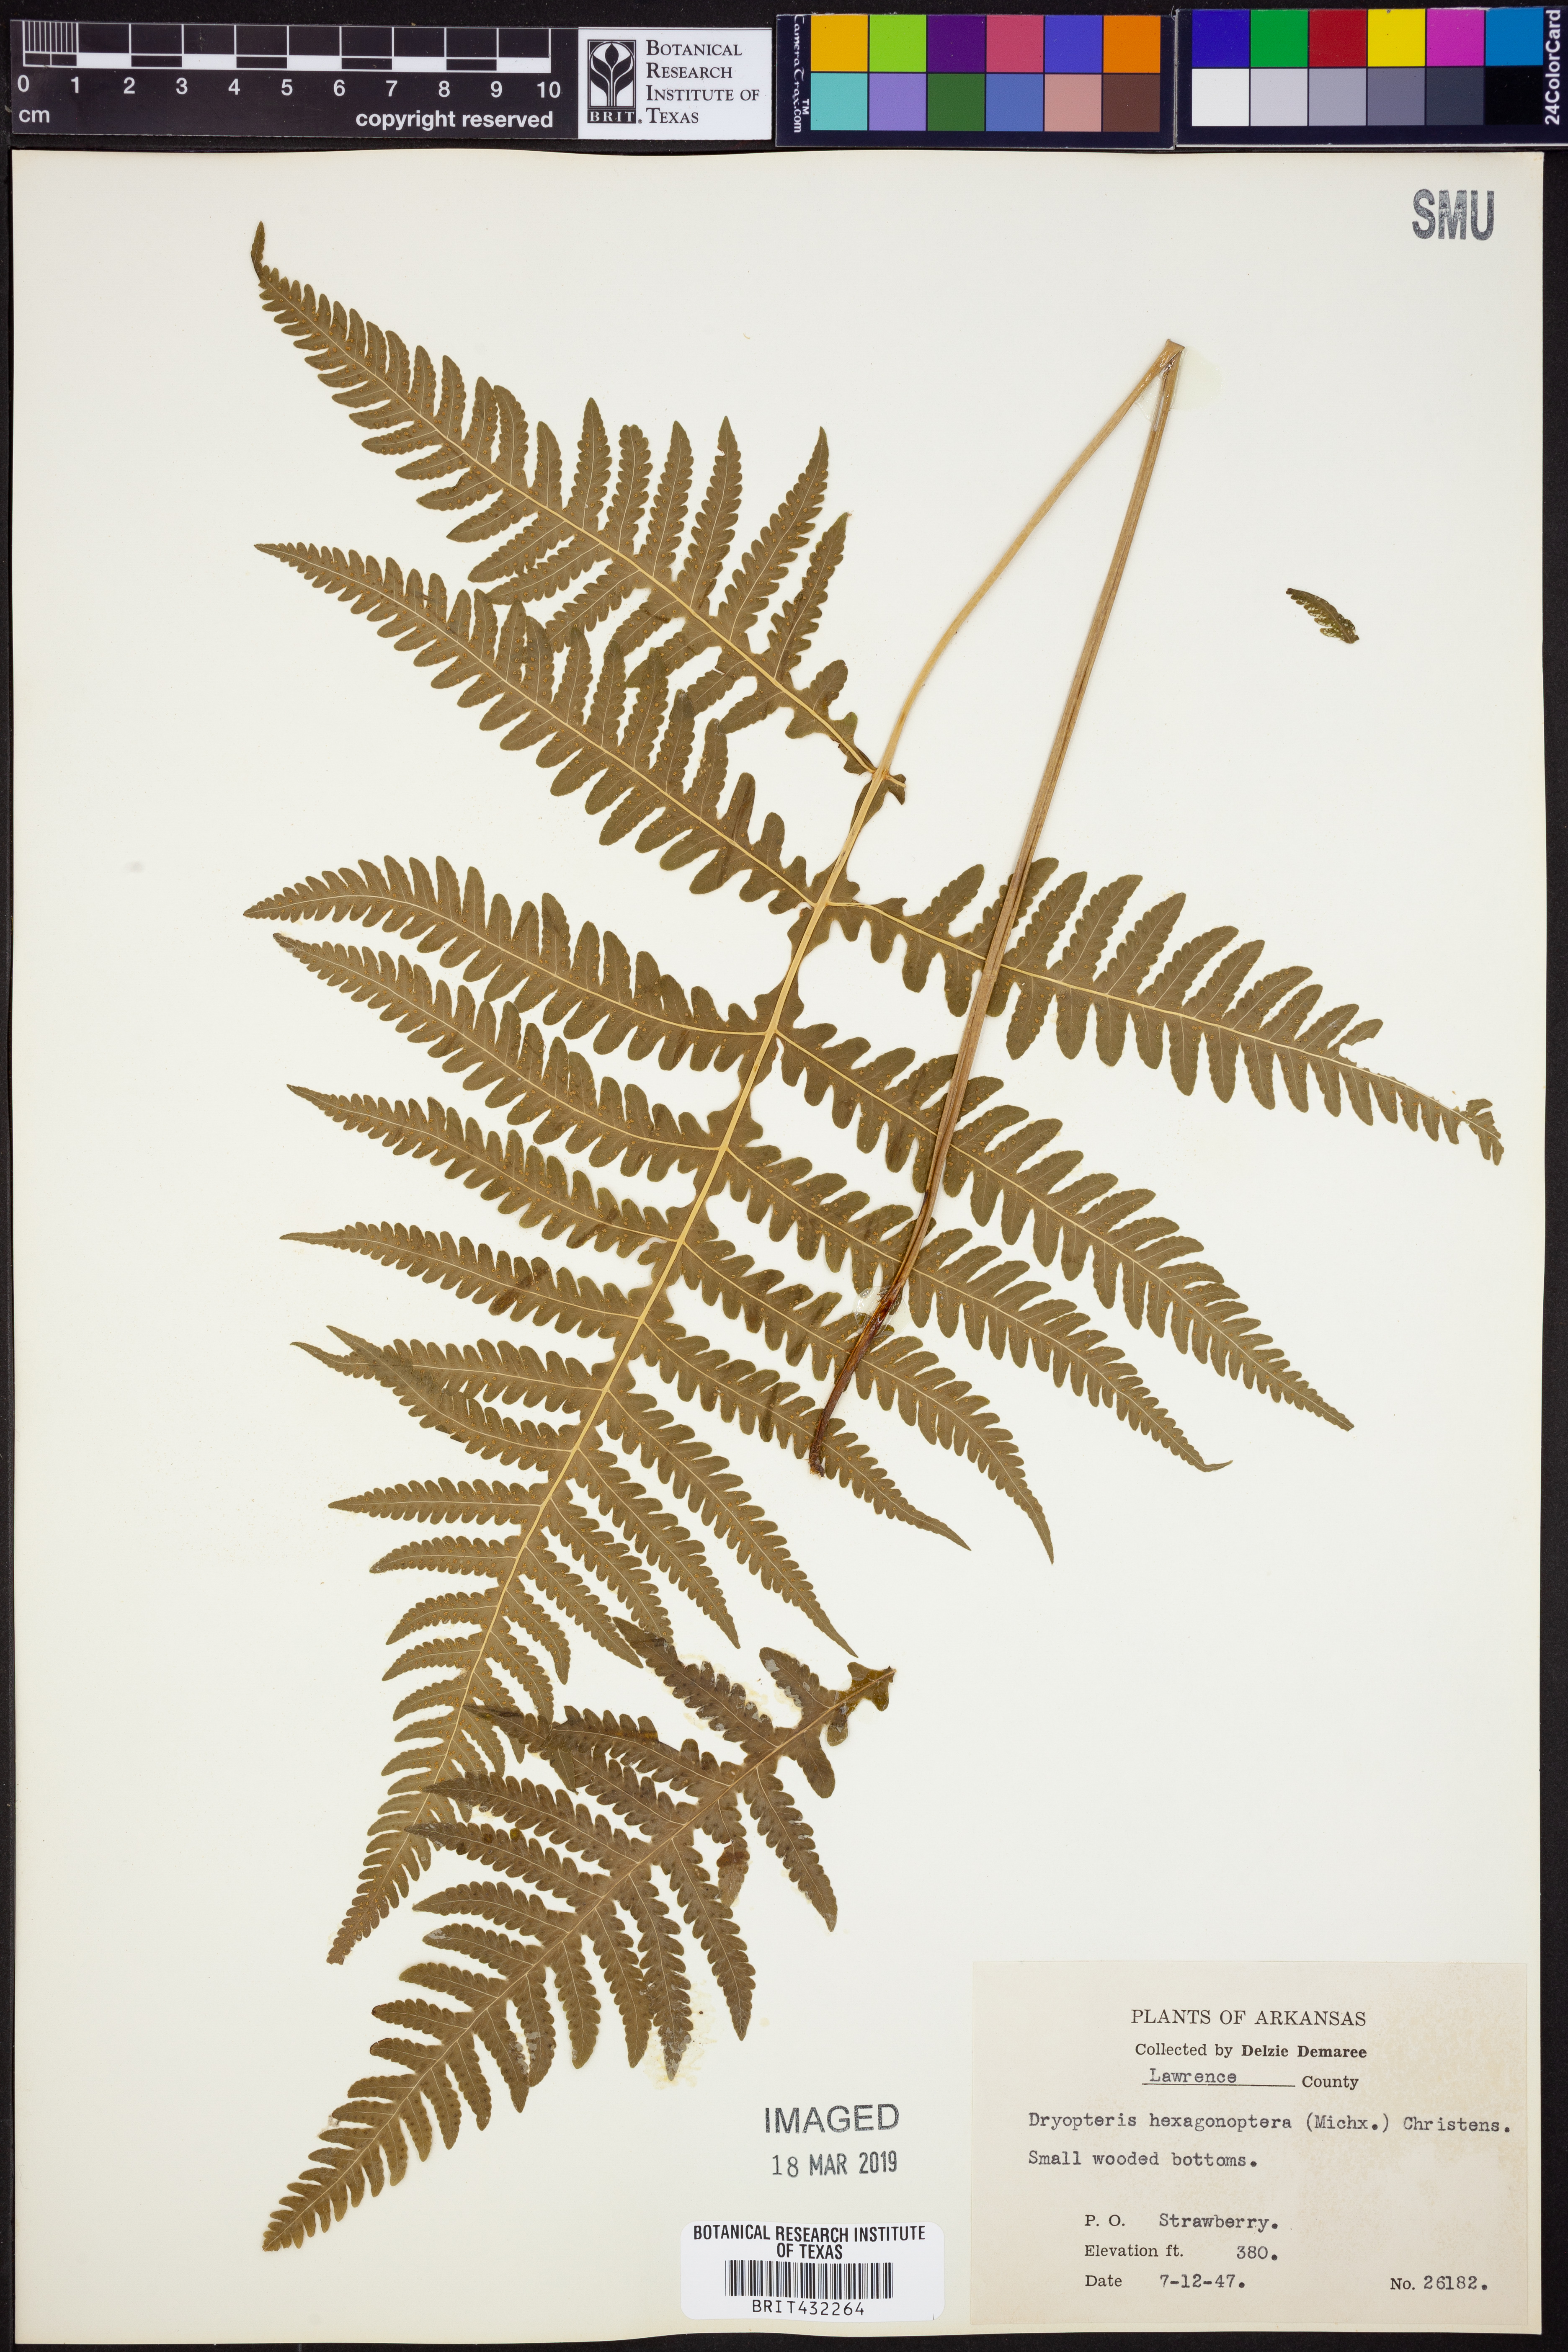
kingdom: Plantae
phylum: Tracheophyta
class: Polypodiopsida
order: Polypodiales
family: Dryopteridaceae
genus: Dryopteris
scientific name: Dryopteris hexagonaptera
